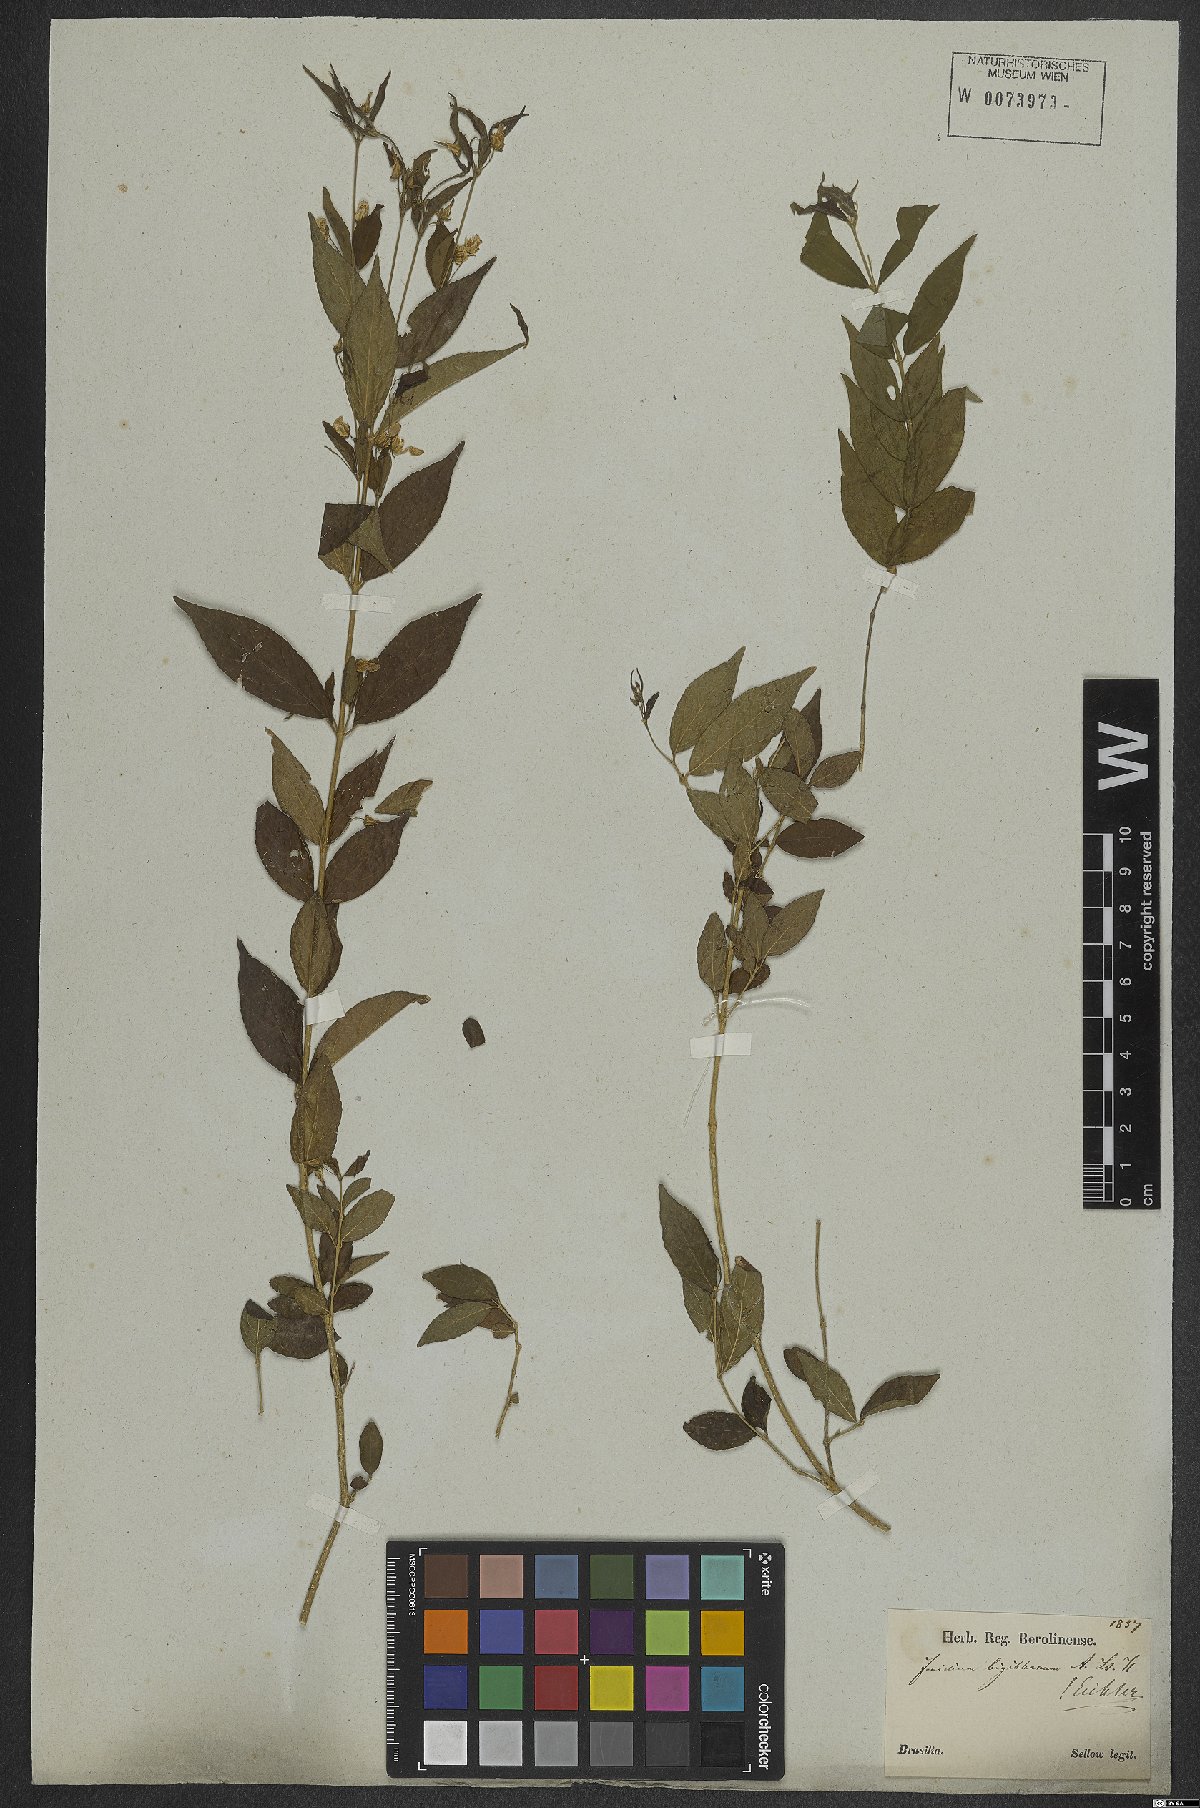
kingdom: Plantae
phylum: Tracheophyta
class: Magnoliopsida
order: Malpighiales
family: Violaceae
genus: Pombalia
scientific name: Pombalia bigibbosa
